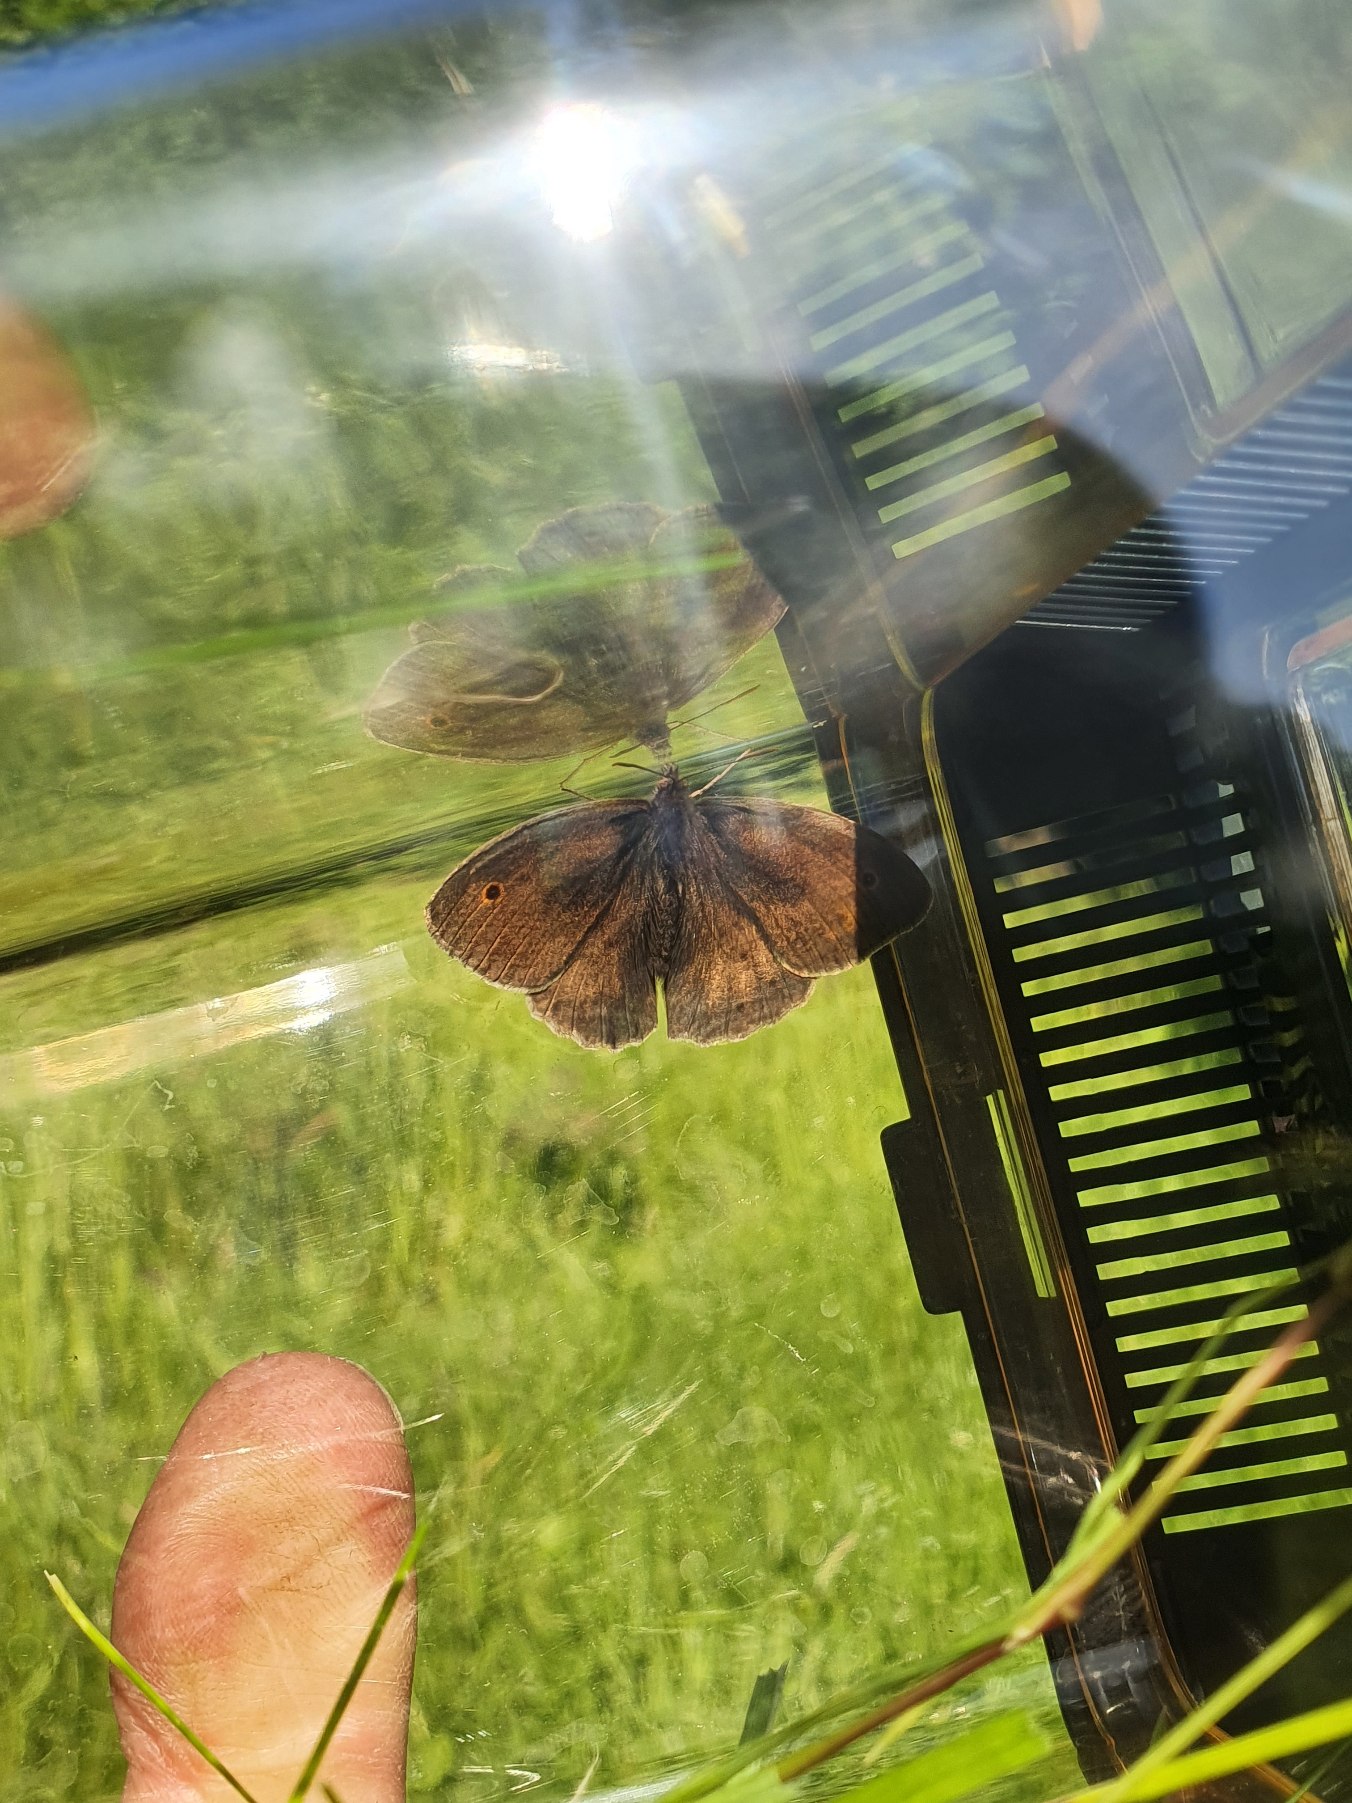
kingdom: Animalia
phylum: Arthropoda
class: Insecta
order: Lepidoptera
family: Nymphalidae
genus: Maniola
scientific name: Maniola jurtina
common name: Græsrandøje
